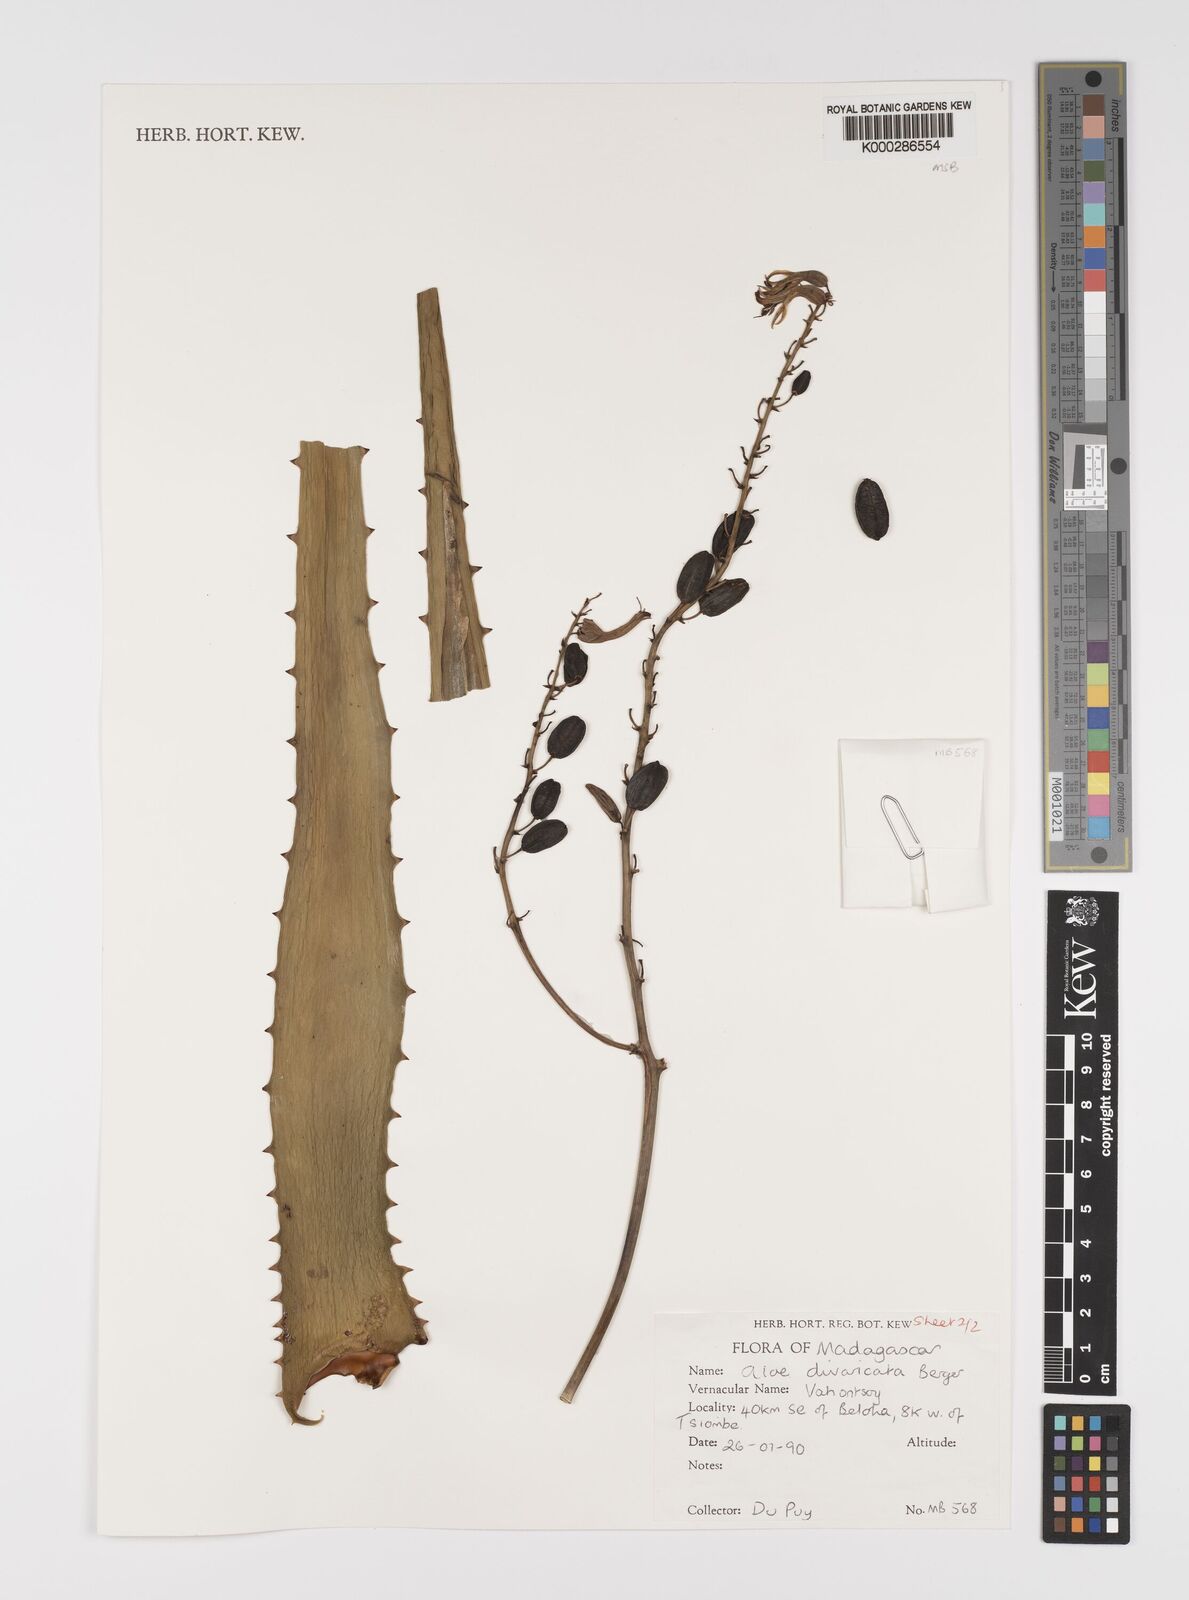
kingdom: Plantae
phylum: Tracheophyta
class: Liliopsida
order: Asparagales
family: Asphodelaceae
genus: Aloe
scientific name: Aloe divaricata
